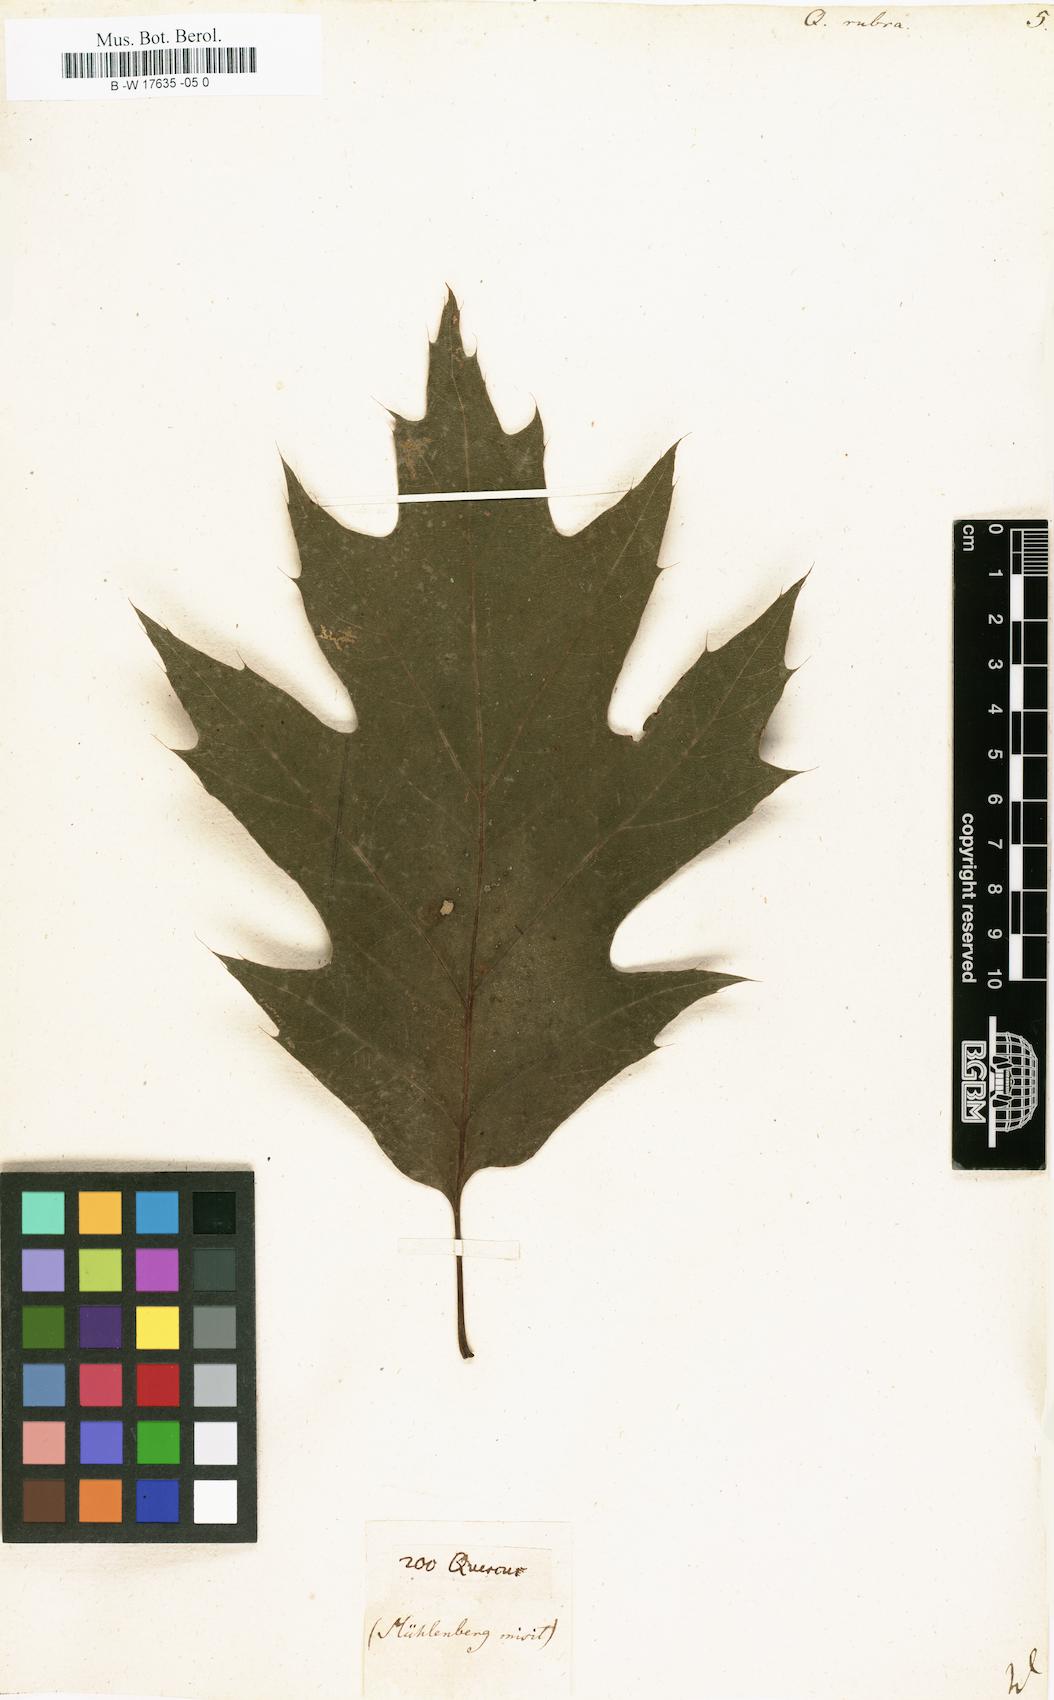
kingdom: Plantae
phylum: Tracheophyta
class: Magnoliopsida
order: Fagales
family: Fagaceae
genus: Quercus
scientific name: Quercus rubra
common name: Red oak
